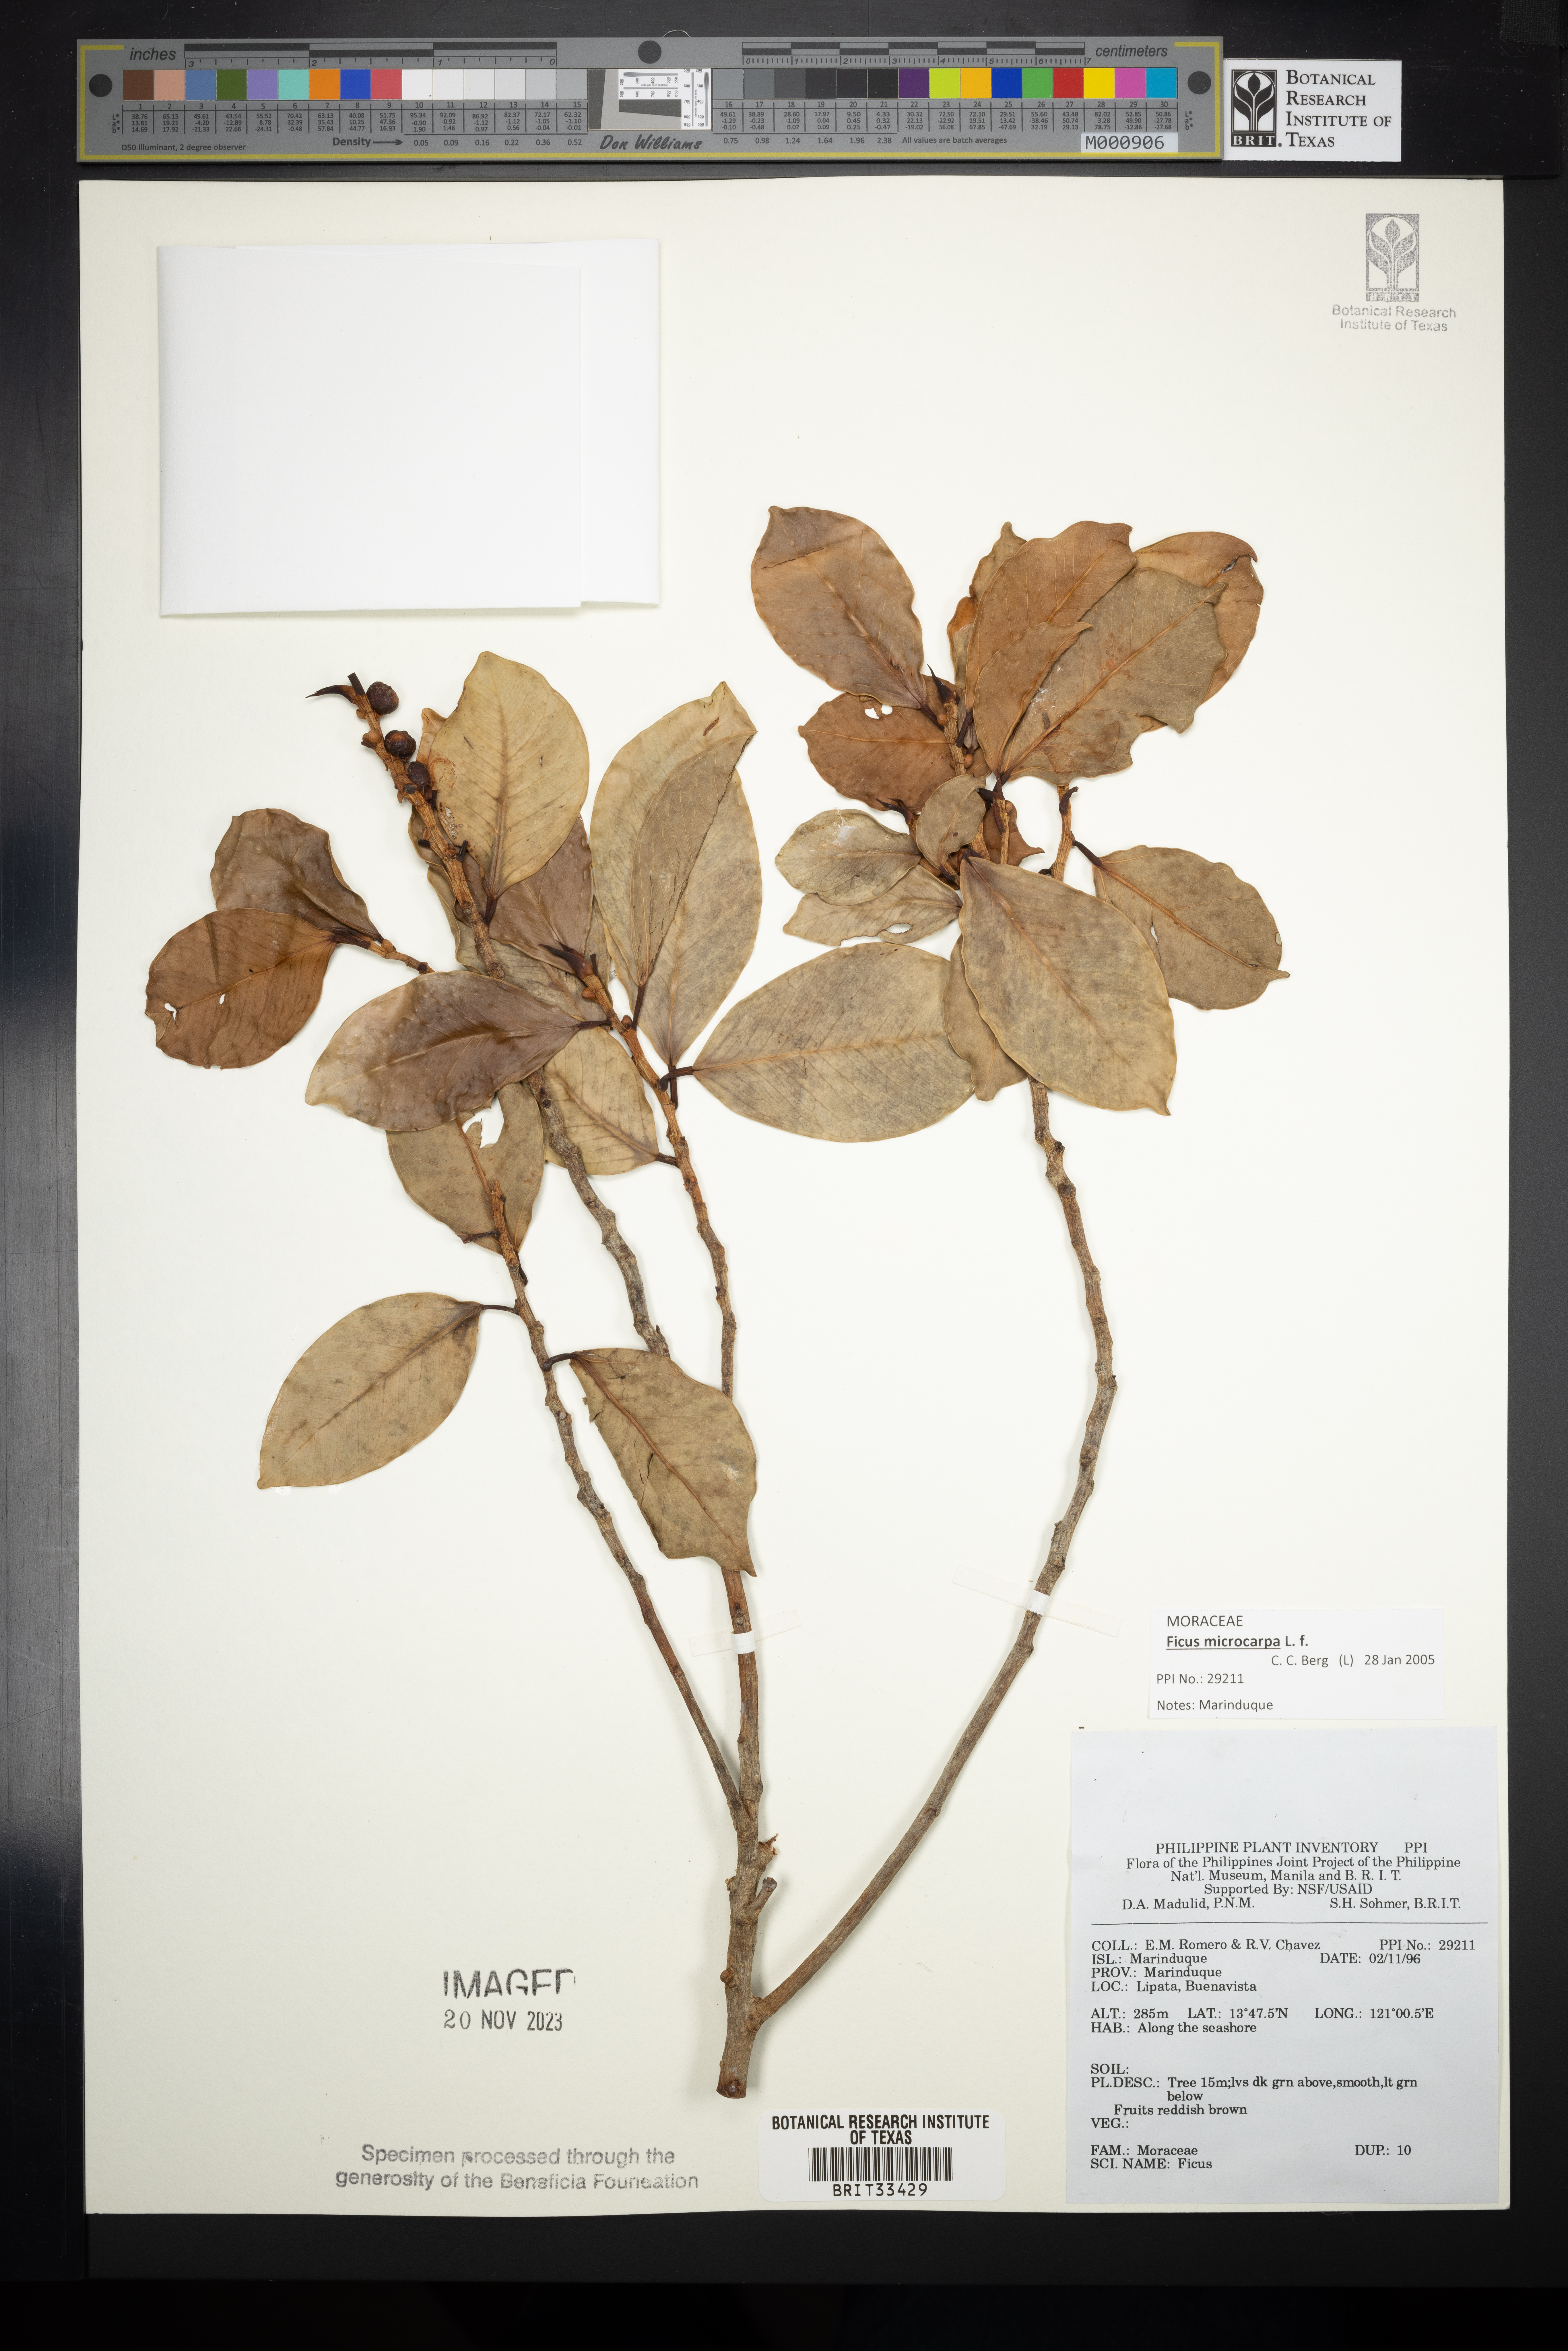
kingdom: Plantae
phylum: Tracheophyta
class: Magnoliopsida
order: Rosales
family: Moraceae
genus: Ficus
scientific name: Ficus
